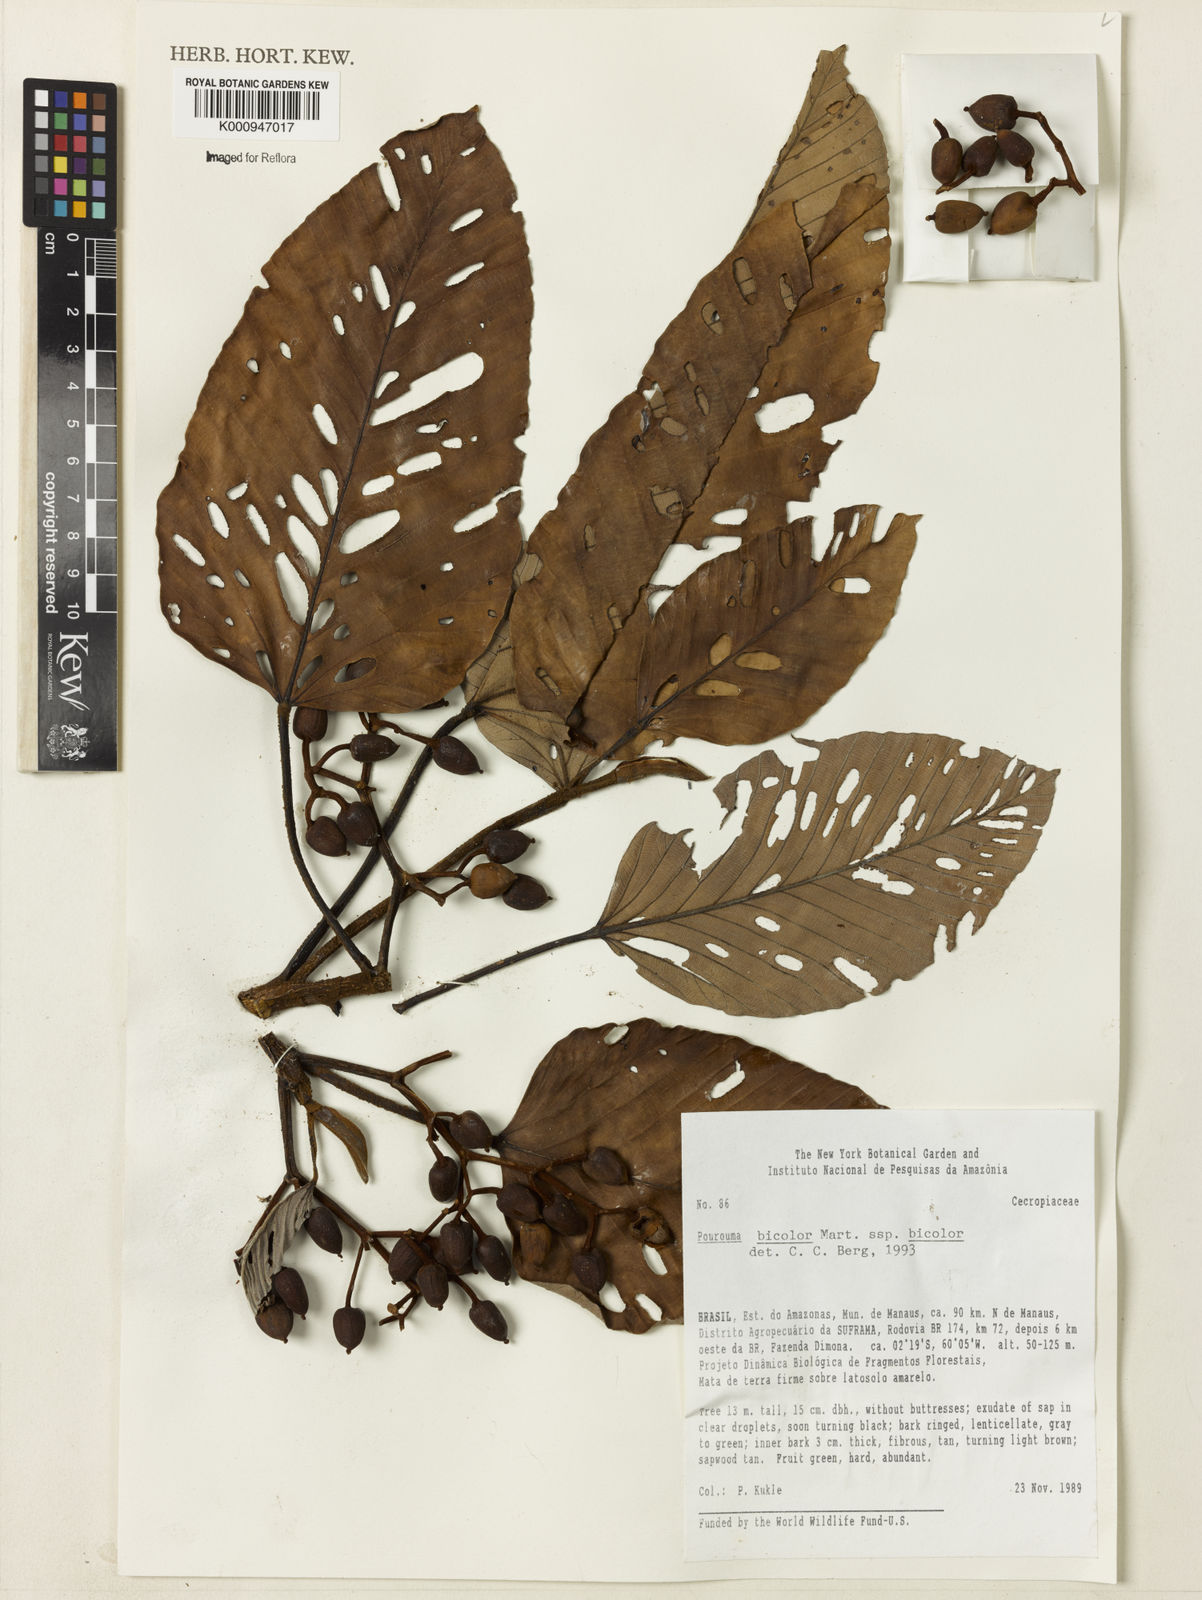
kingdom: Plantae
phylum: Tracheophyta
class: Magnoliopsida
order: Rosales
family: Urticaceae
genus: Pourouma
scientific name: Pourouma bicolor
